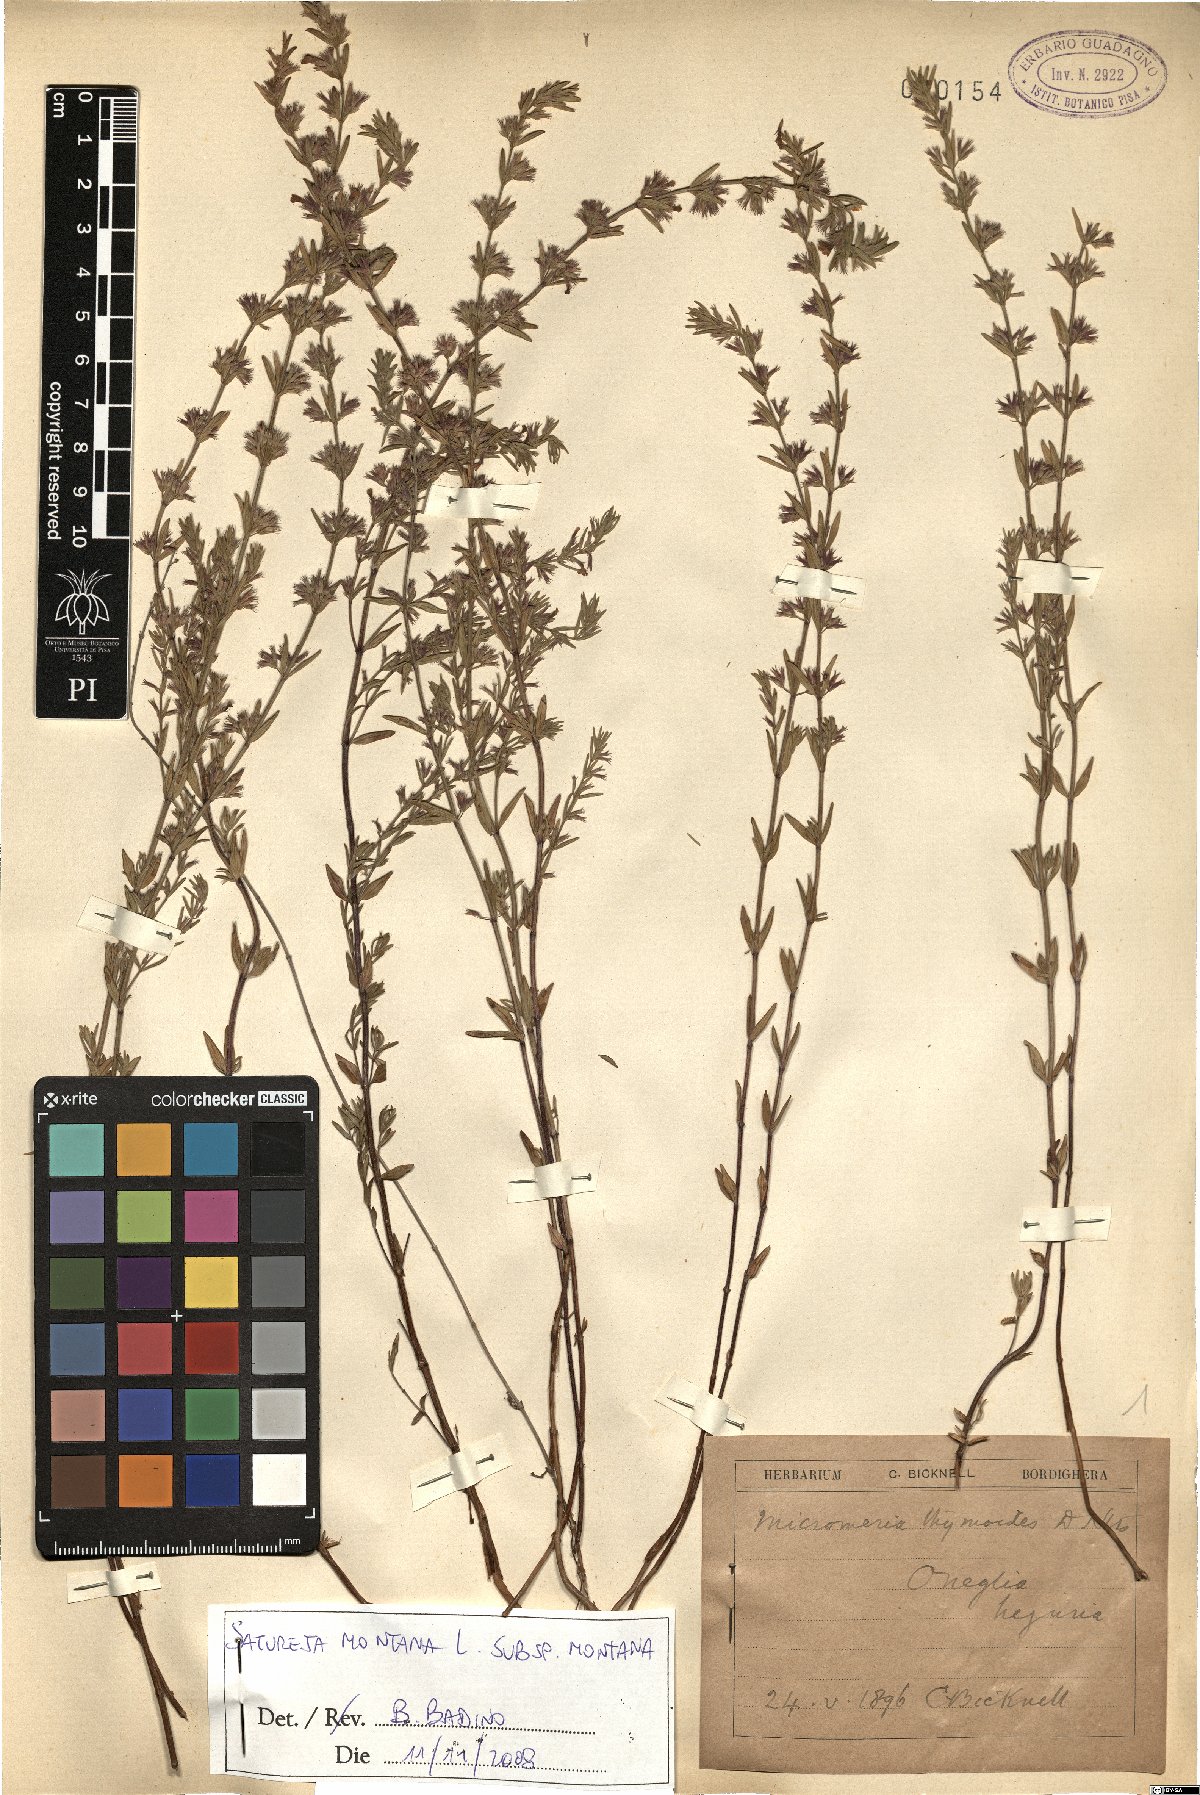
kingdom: Plantae
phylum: Tracheophyta
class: Magnoliopsida
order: Lamiales
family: Lamiaceae
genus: Satureja
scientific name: Satureja montana
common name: Winter savory
